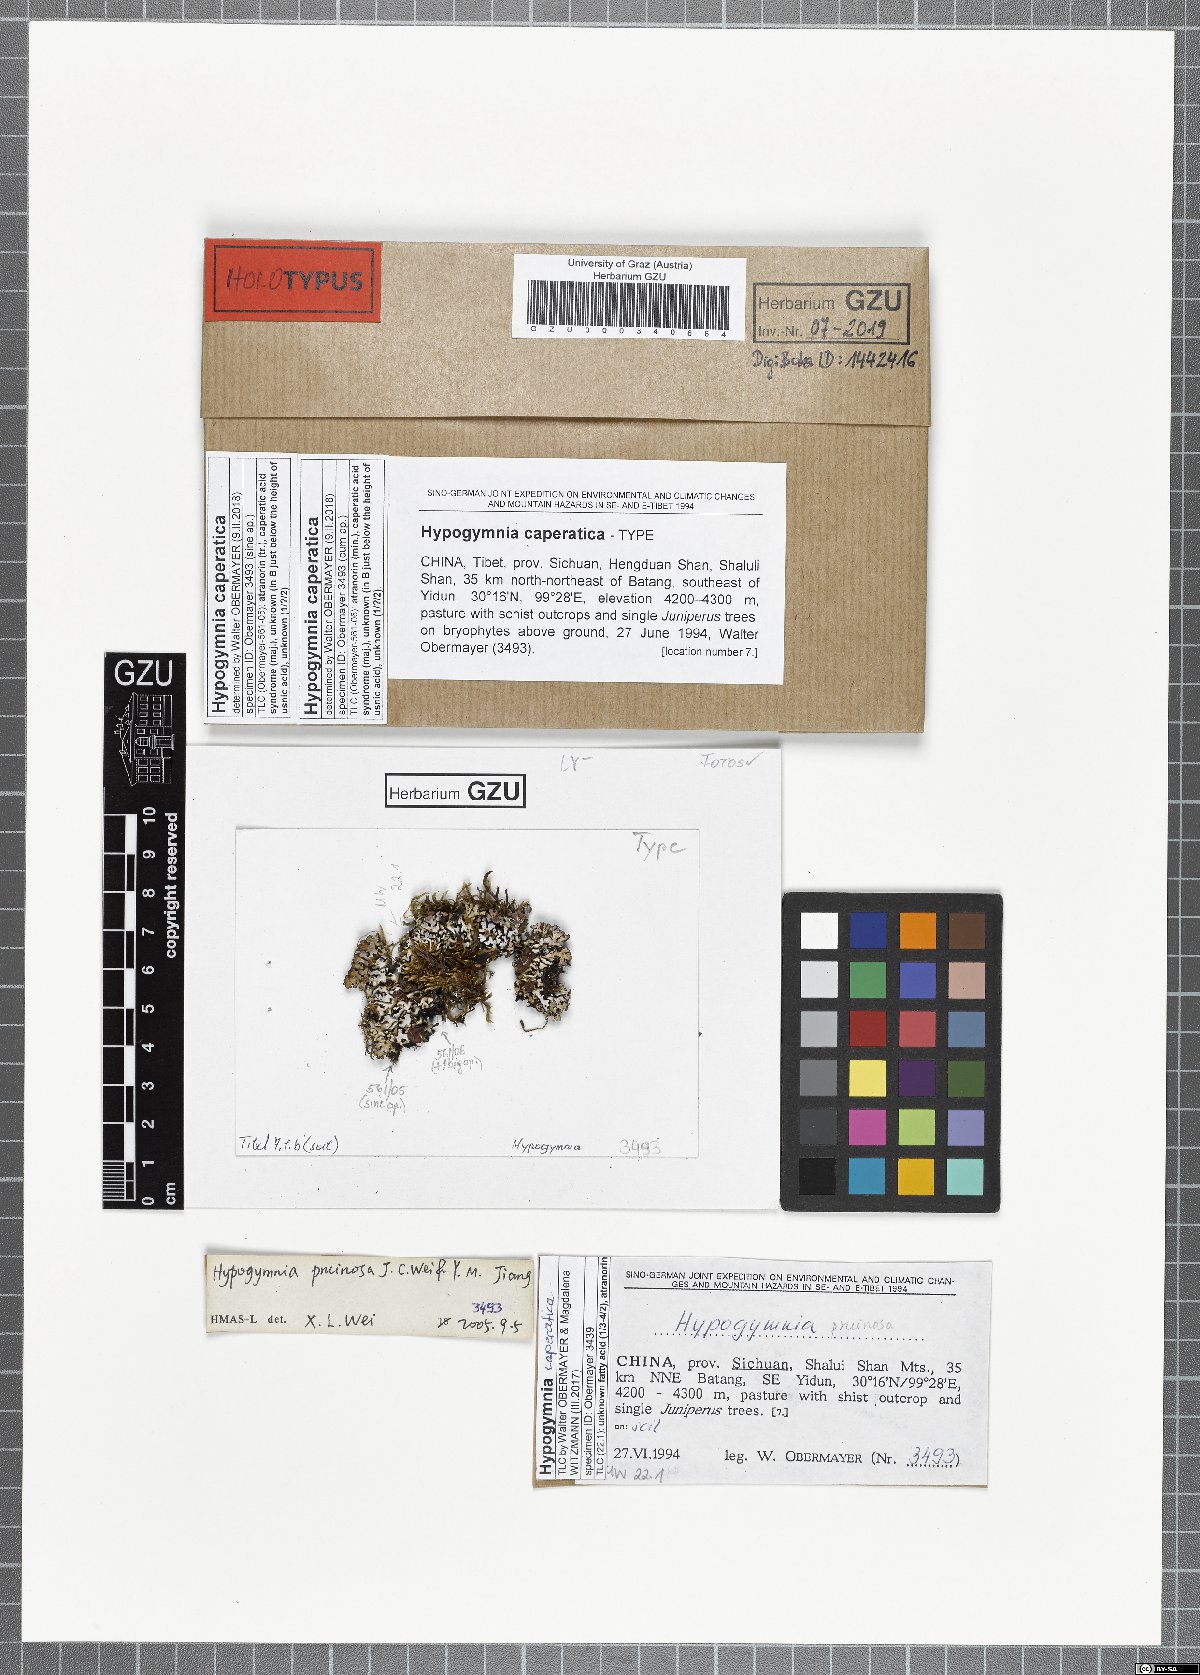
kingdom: Fungi
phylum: Ascomycota
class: Lecanoromycetes
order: Lecanorales
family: Parmeliaceae
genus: Hypogymnia
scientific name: Hypogymnia caperatica
